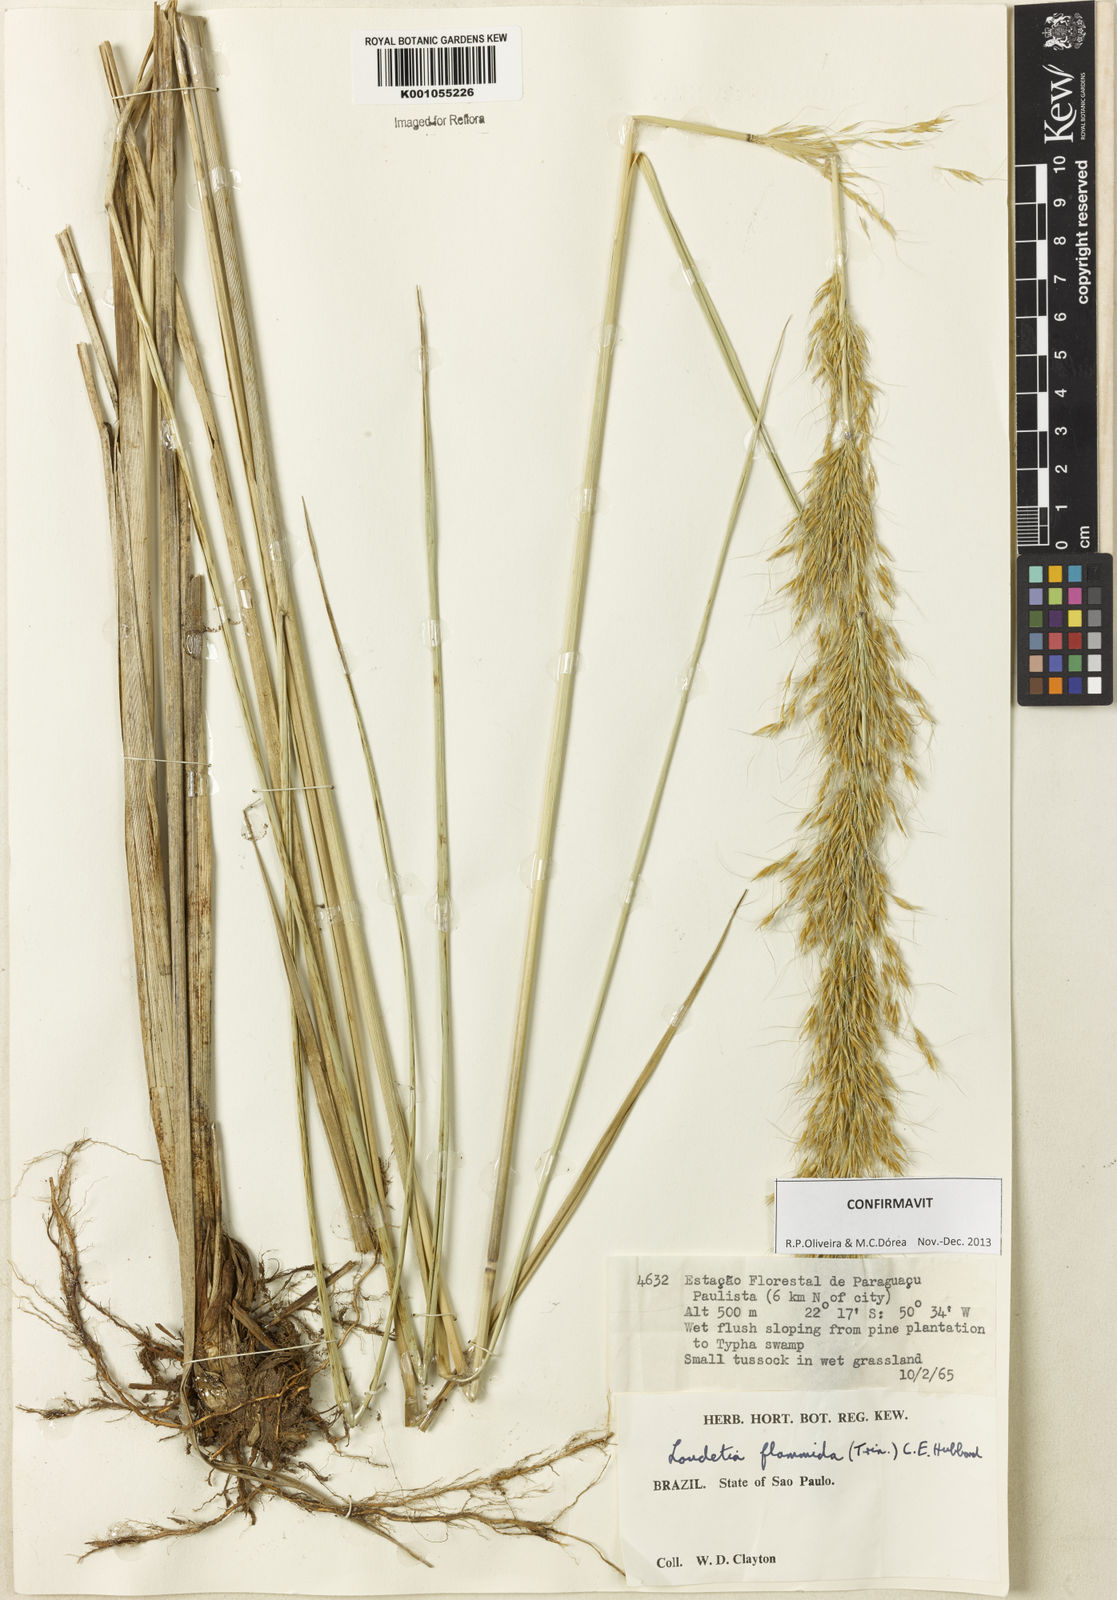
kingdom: Plantae
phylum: Tracheophyta
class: Liliopsida
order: Poales
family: Poaceae
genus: Loudetia
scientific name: Loudetia flammida
